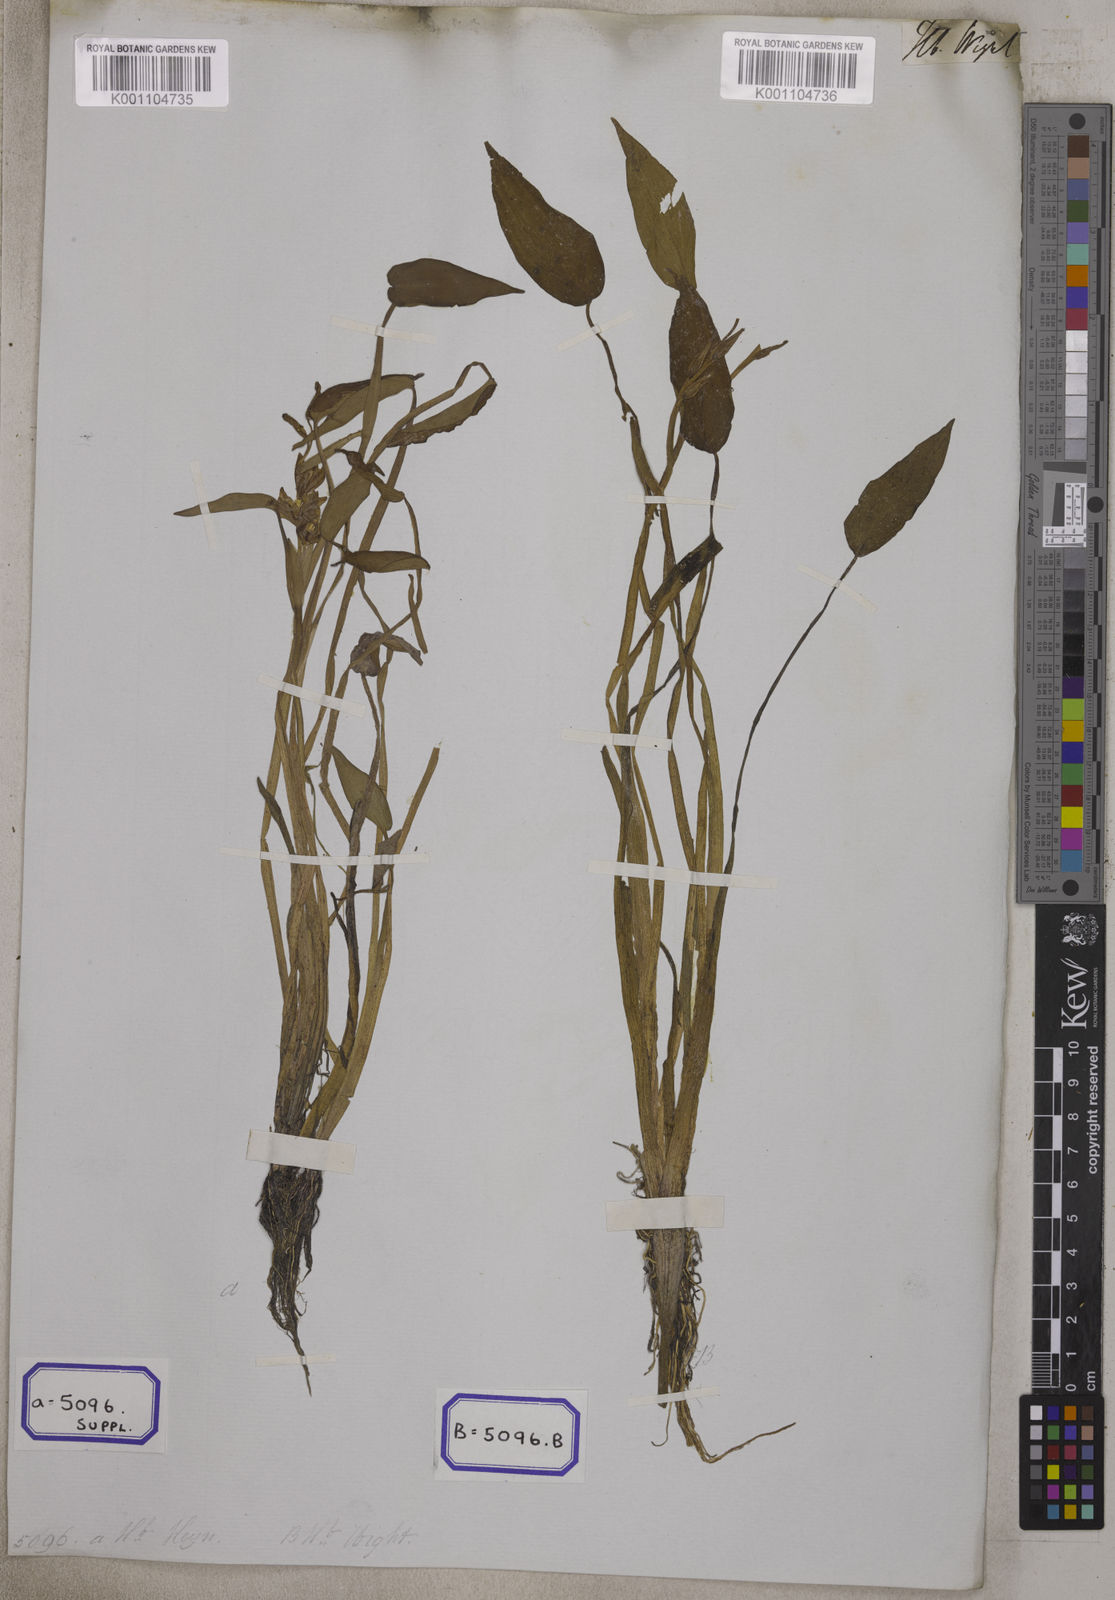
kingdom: Plantae
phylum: Tracheophyta
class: Liliopsida
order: Commelinales
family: Pontederiaceae
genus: Pontederia
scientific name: Pontederia plantaginea
